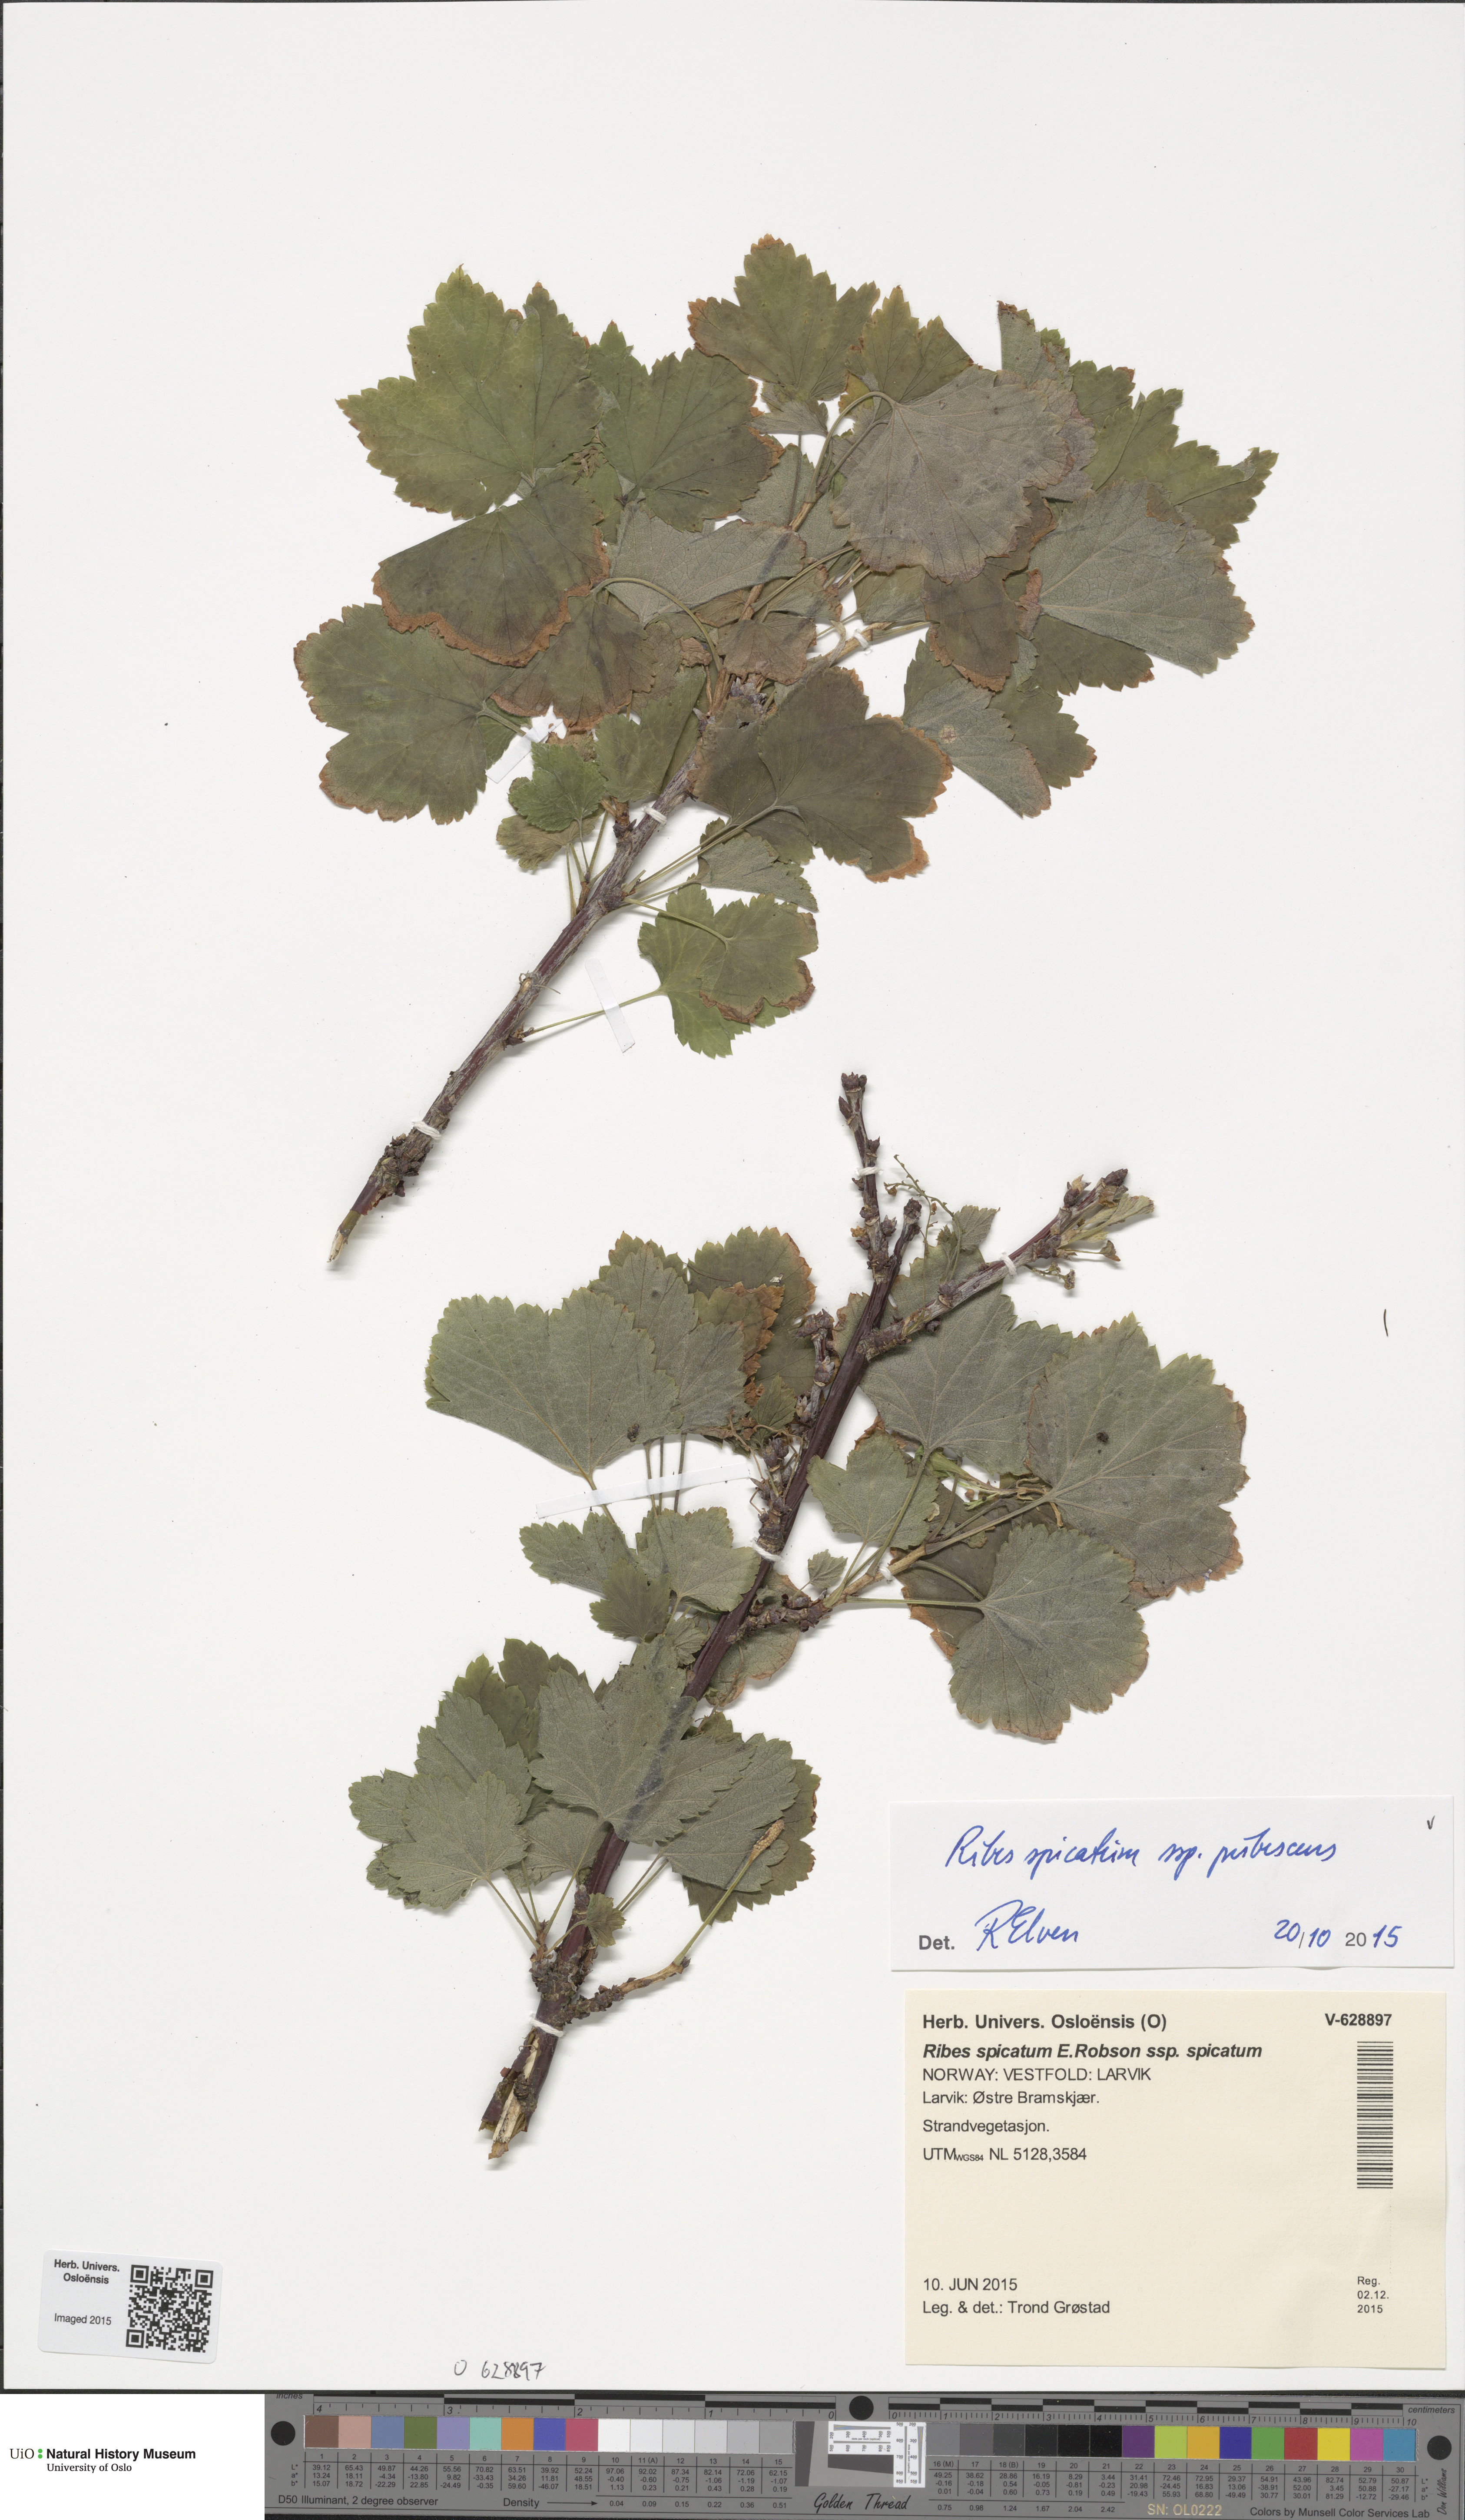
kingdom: Plantae
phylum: Tracheophyta
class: Magnoliopsida
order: Saxifragales
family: Grossulariaceae
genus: Ribes
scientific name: Ribes spicatum
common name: Downy currant
